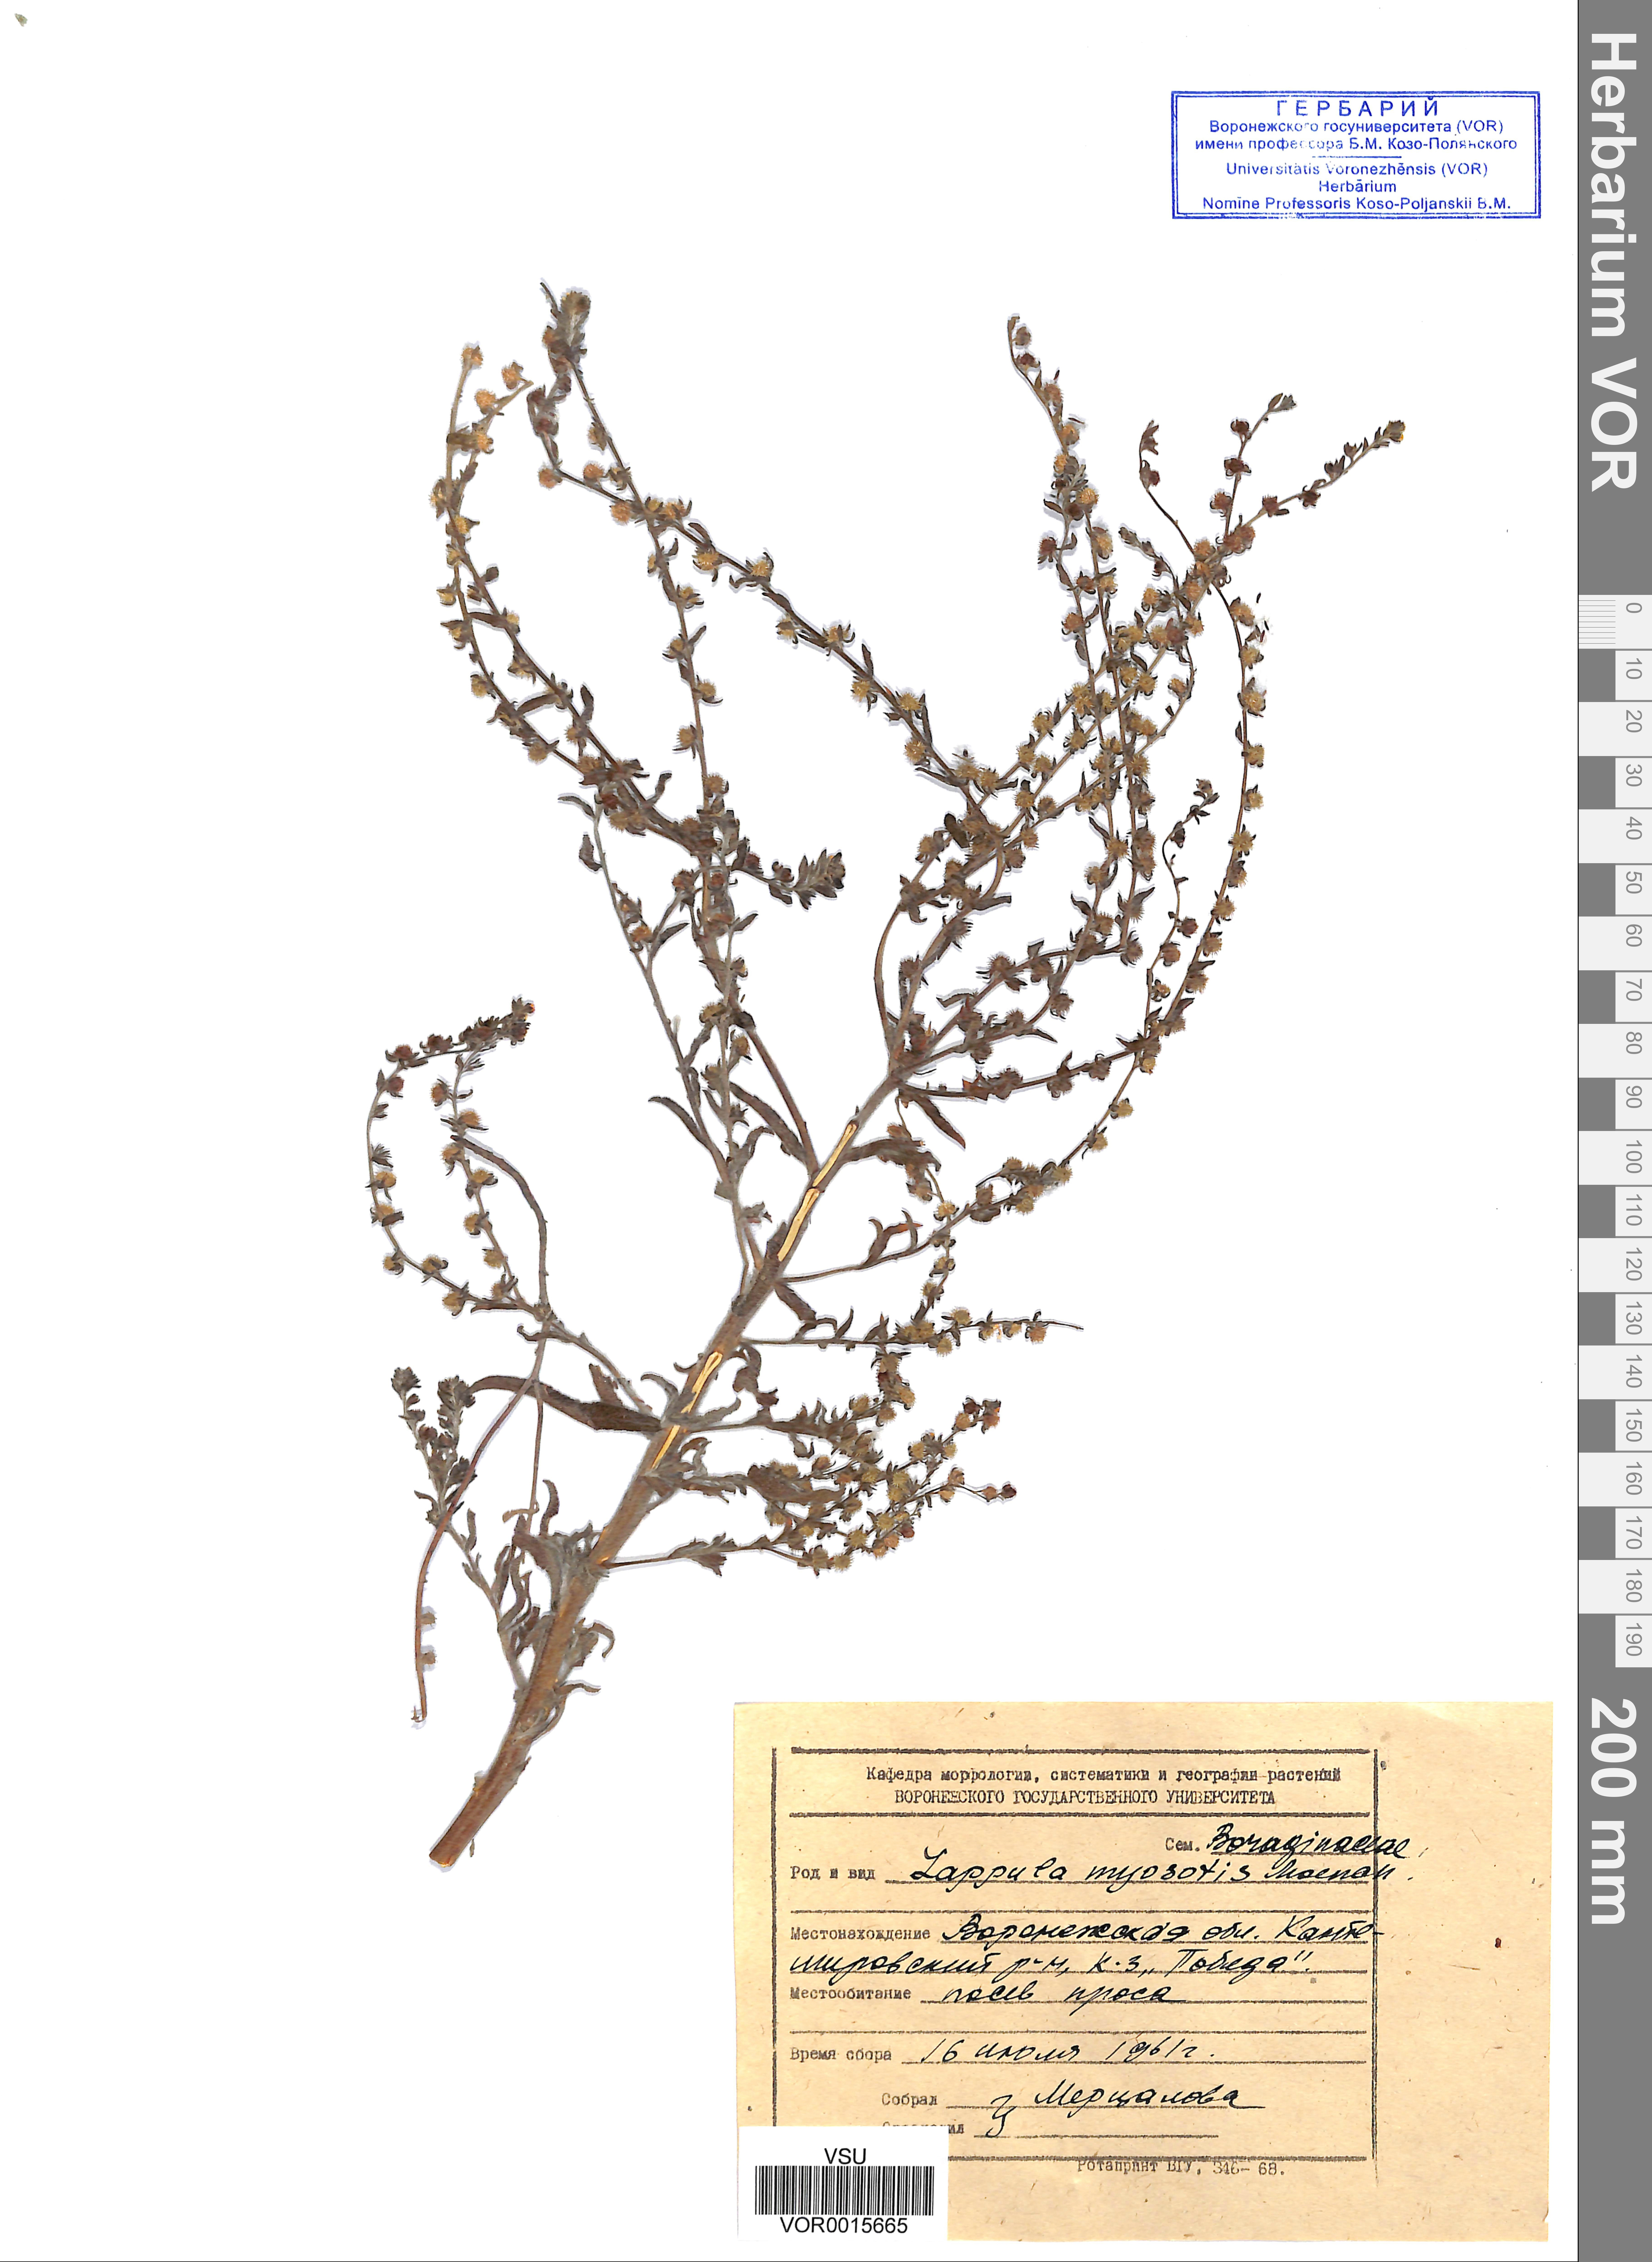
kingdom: Plantae
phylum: Tracheophyta
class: Magnoliopsida
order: Boraginales
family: Boraginaceae
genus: Lappula
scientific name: Lappula squarrosa
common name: European stickseed
